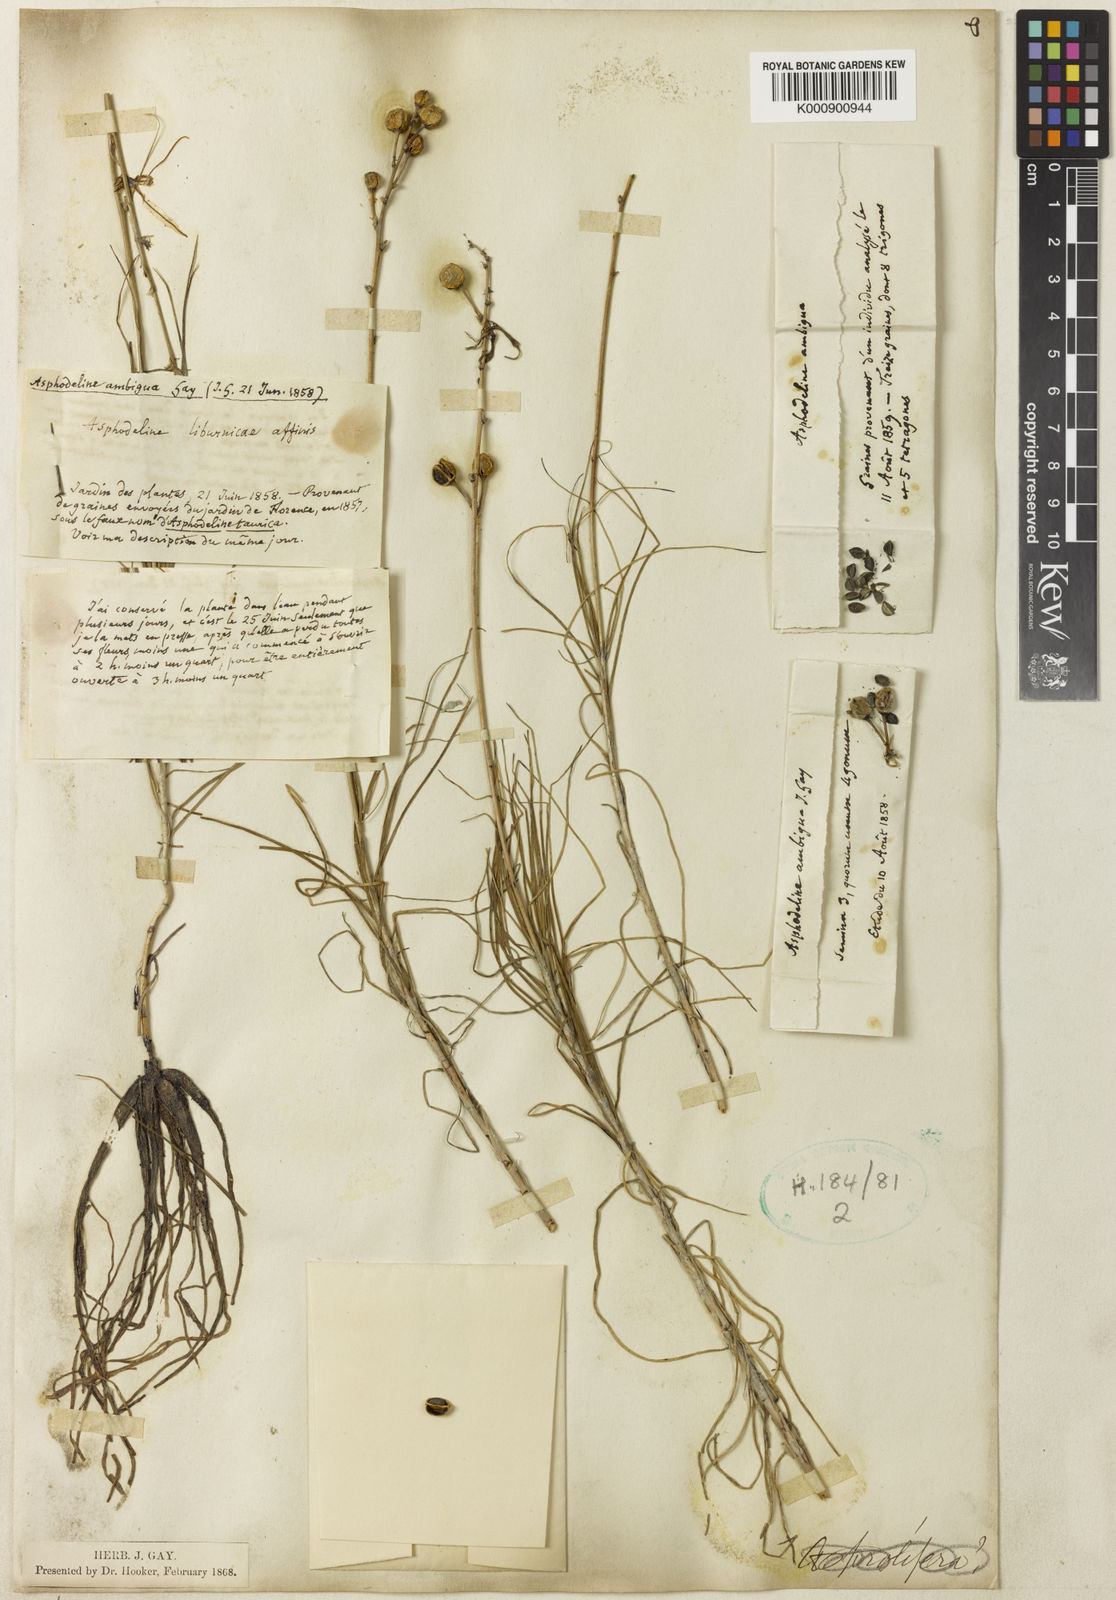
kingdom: Plantae
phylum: Tracheophyta
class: Liliopsida
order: Asparagales
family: Asphodelaceae
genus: Asphodeline
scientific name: Asphodeline ambigua
